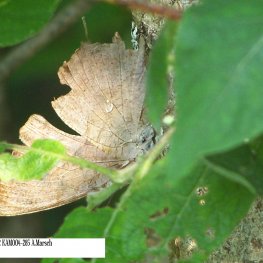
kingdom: Animalia
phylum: Arthropoda
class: Insecta
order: Lepidoptera
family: Nymphalidae
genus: Polygonia
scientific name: Polygonia interrogationis
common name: Question Mark
